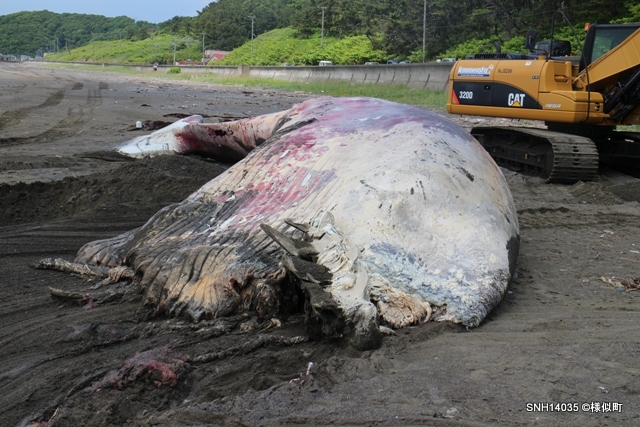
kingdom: Animalia
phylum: Chordata
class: Mammalia
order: Cetacea
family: Balaenopteridae
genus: Balaenoptera
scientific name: Balaenoptera physalus
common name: Fin whale
